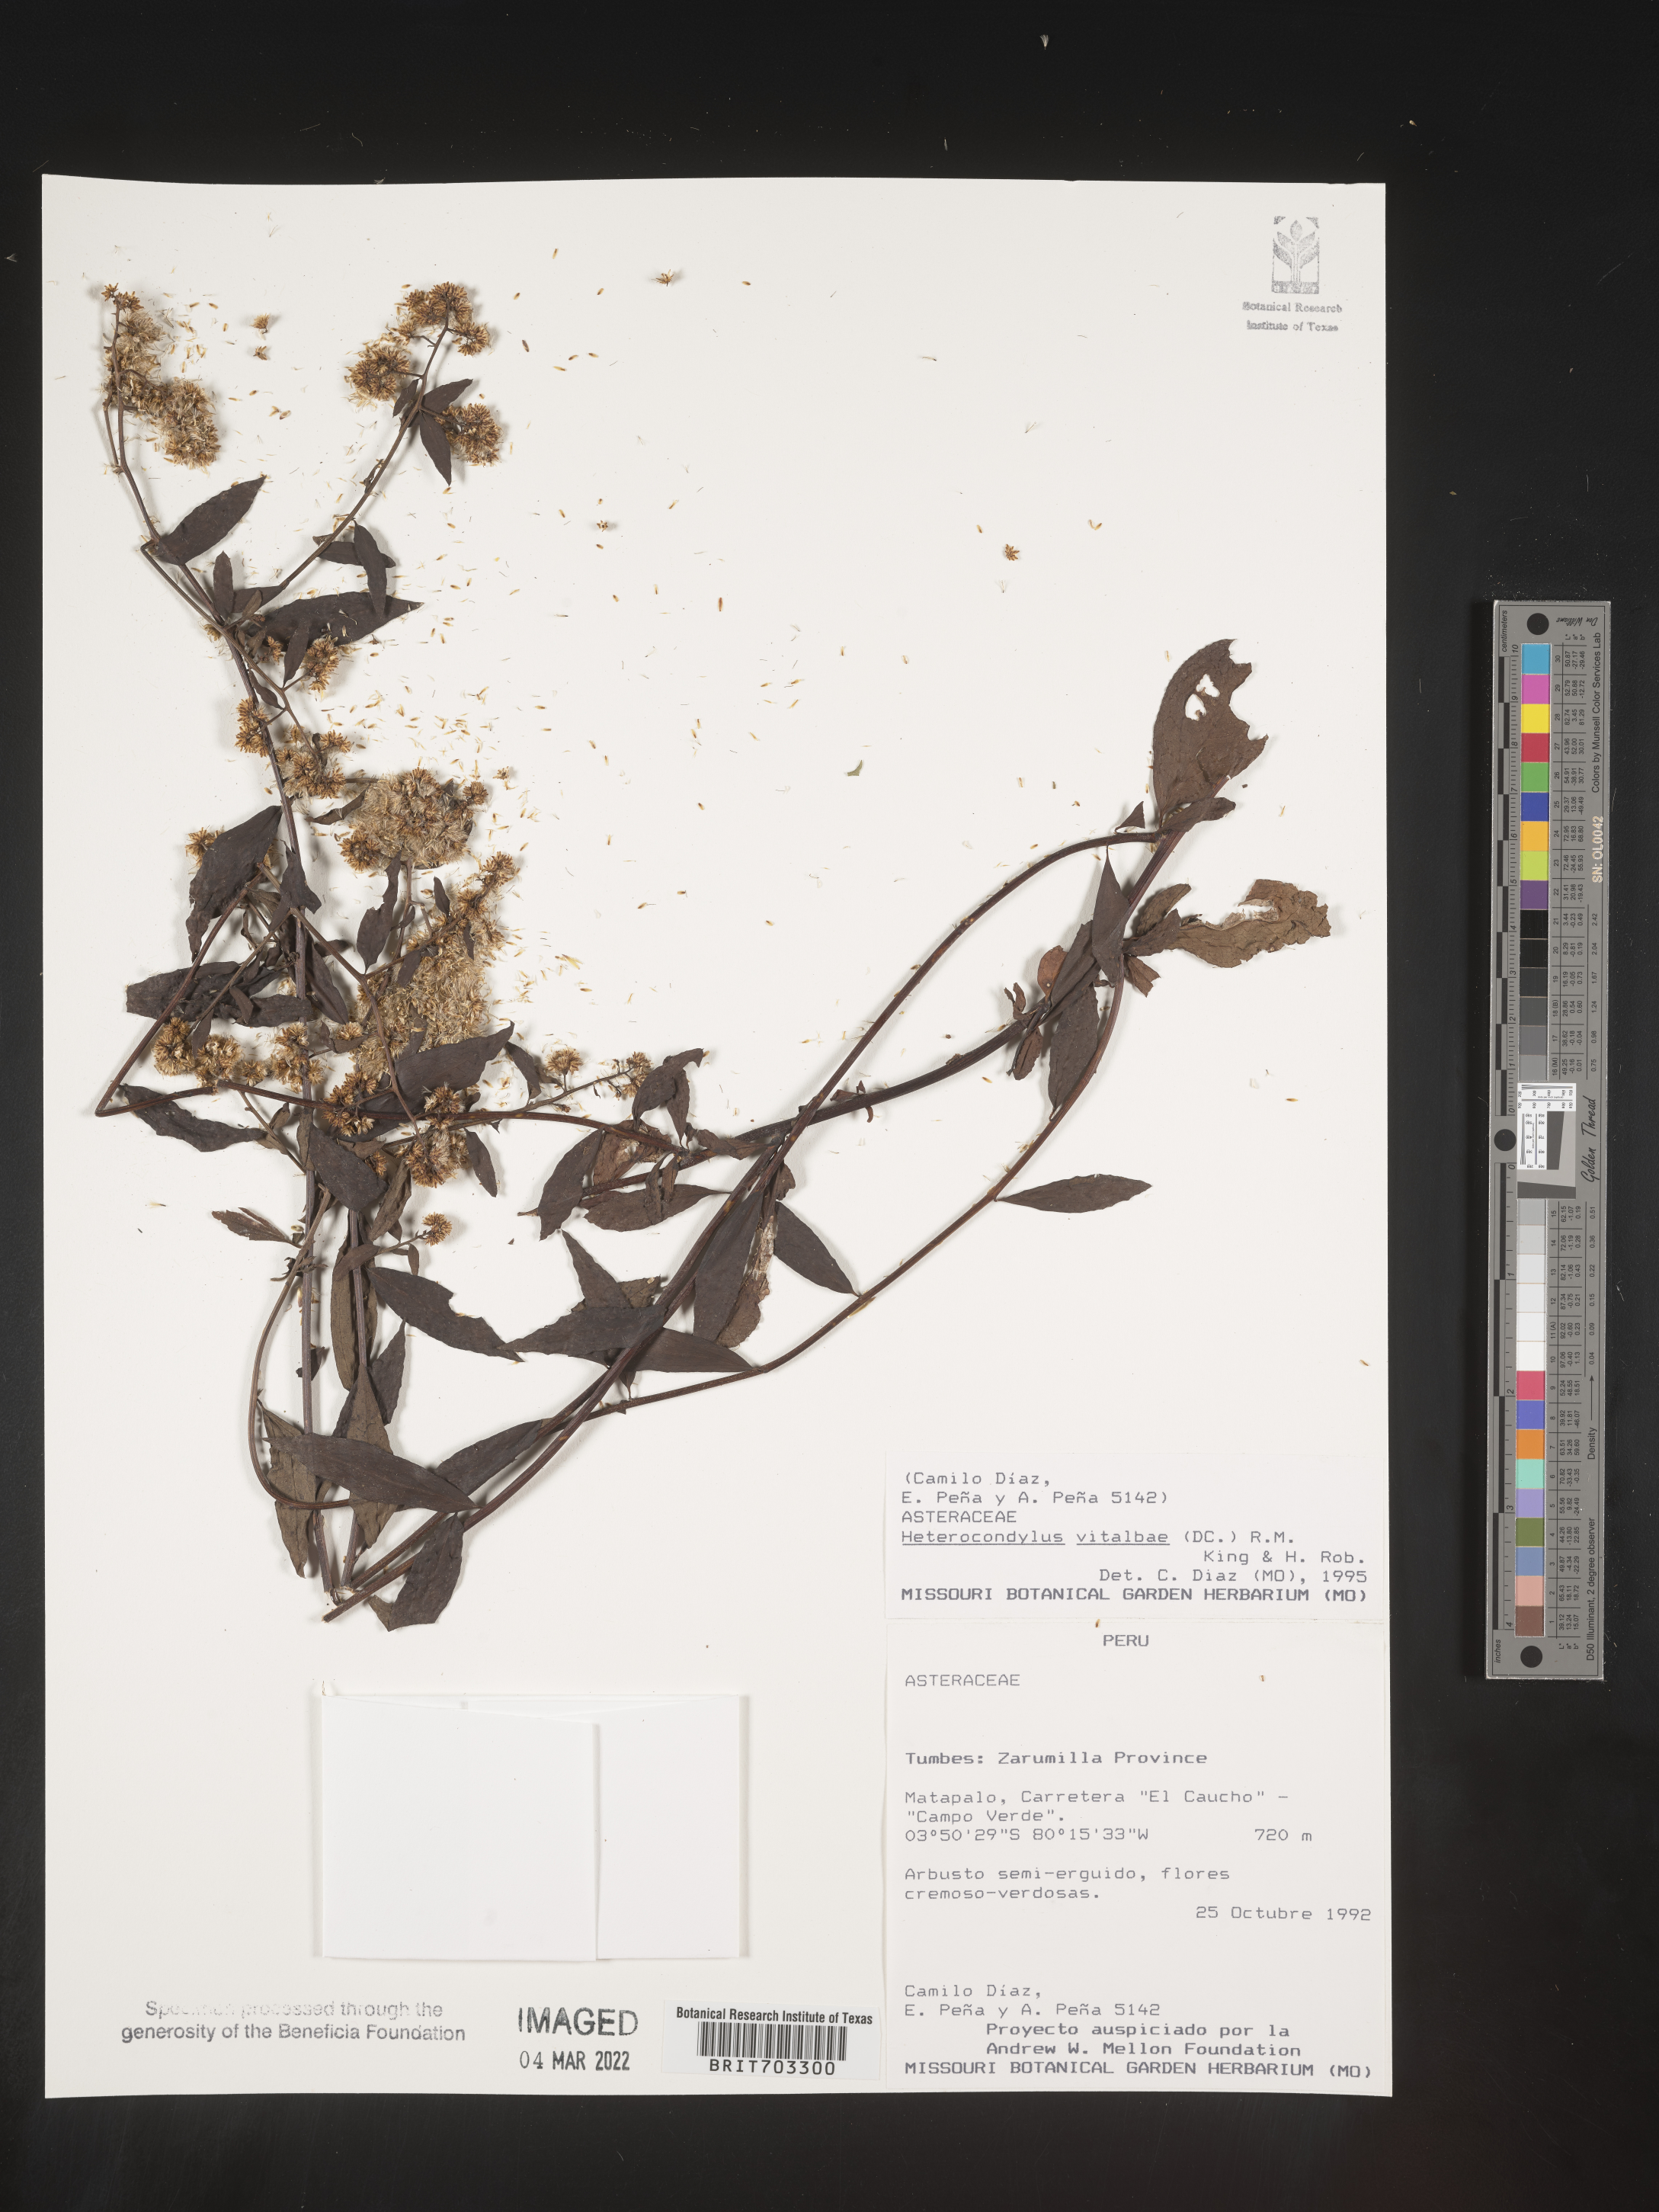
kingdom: Plantae
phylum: Tracheophyta
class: Magnoliopsida
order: Asterales
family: Asteraceae
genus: Eupatorium
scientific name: Eupatorium
